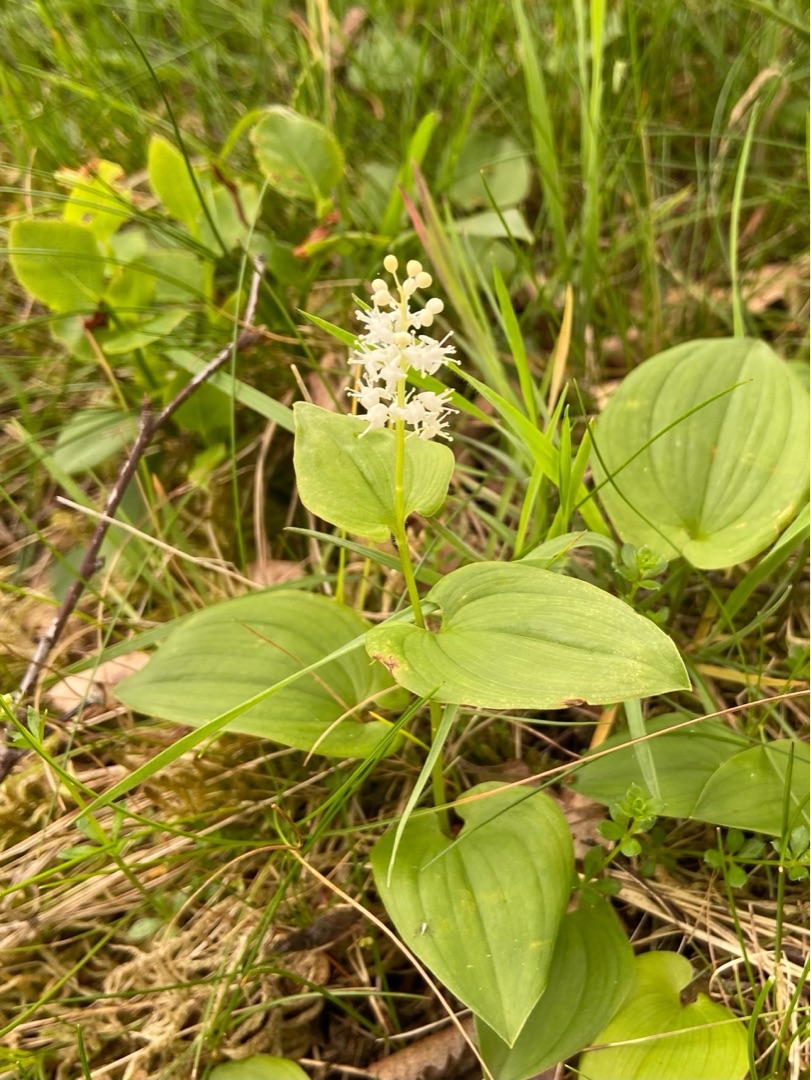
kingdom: Plantae
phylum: Tracheophyta
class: Liliopsida
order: Asparagales
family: Asparagaceae
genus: Maianthemum
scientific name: Maianthemum bifolium
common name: Majblomst
